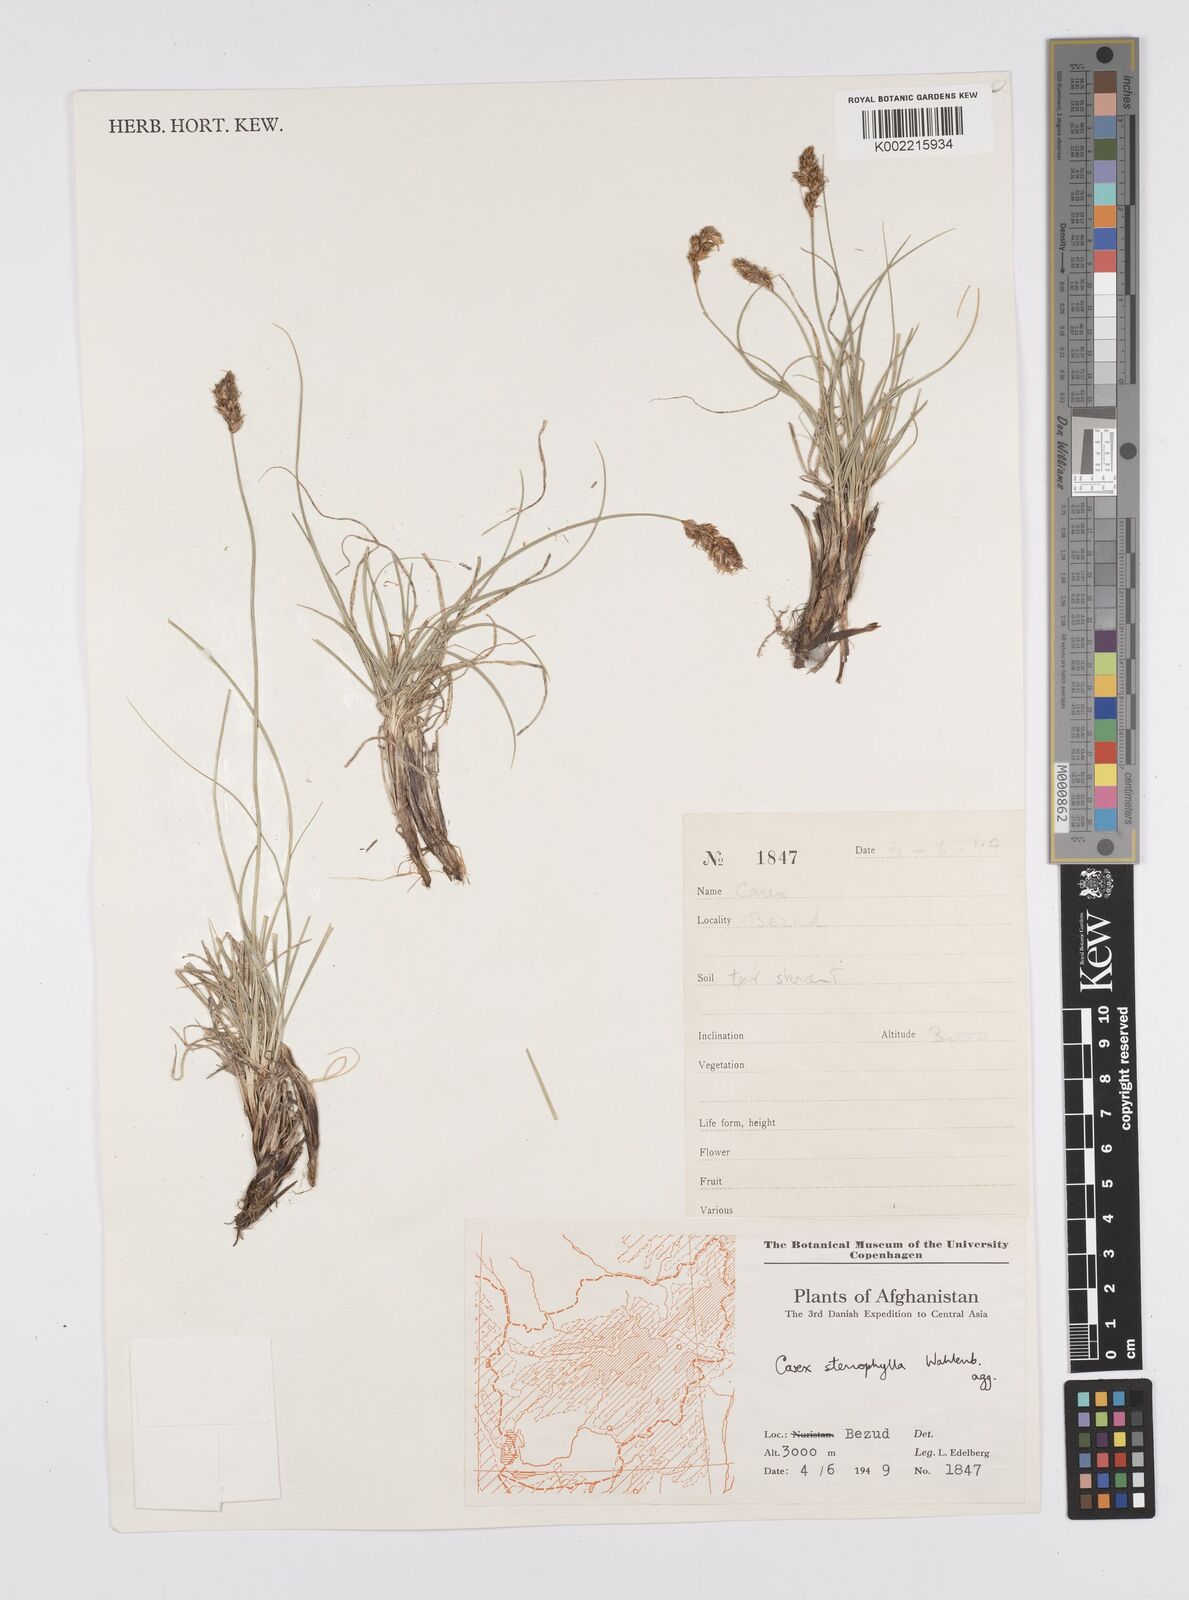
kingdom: Plantae
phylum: Tracheophyta
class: Liliopsida
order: Poales
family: Cyperaceae
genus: Carex
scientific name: Carex stenophylla
